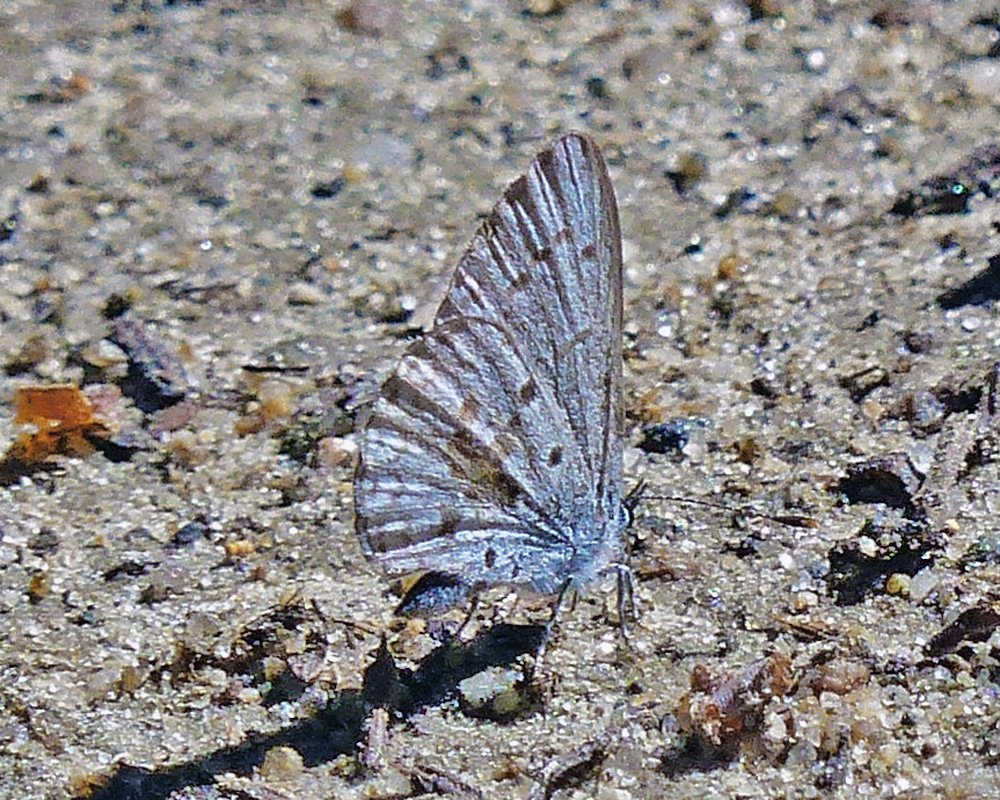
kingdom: Animalia
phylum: Arthropoda
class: Insecta
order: Lepidoptera
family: Lycaenidae
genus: Celastrina
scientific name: Celastrina ladon
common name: Echo Azure
